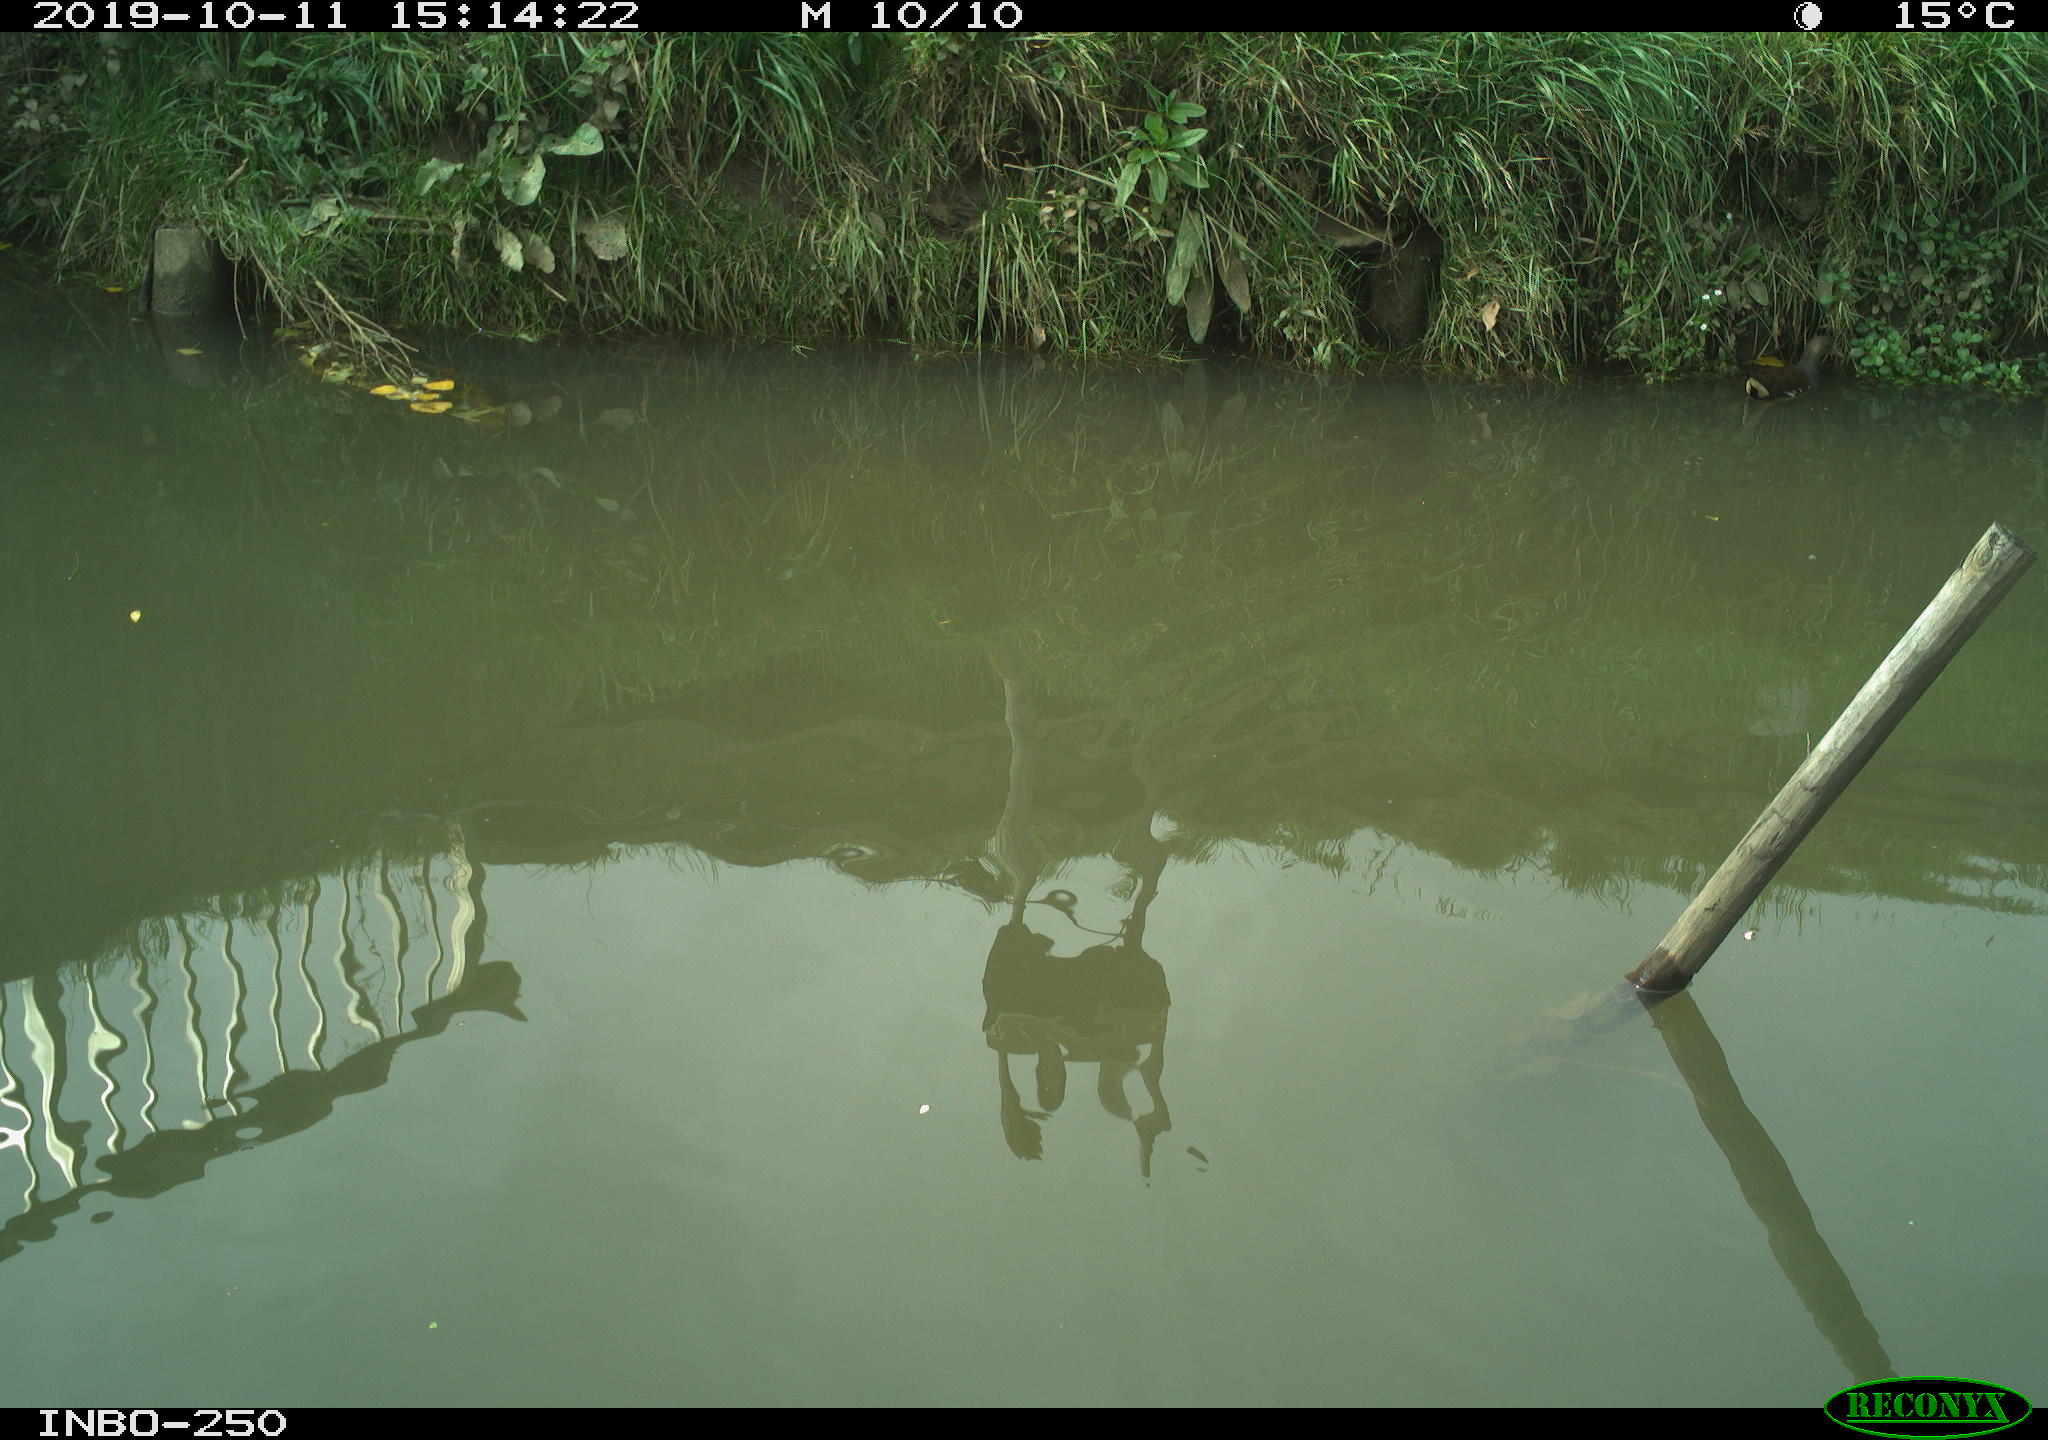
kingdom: Animalia
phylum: Chordata
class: Aves
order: Gruiformes
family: Rallidae
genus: Gallinula
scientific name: Gallinula chloropus
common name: Common moorhen
